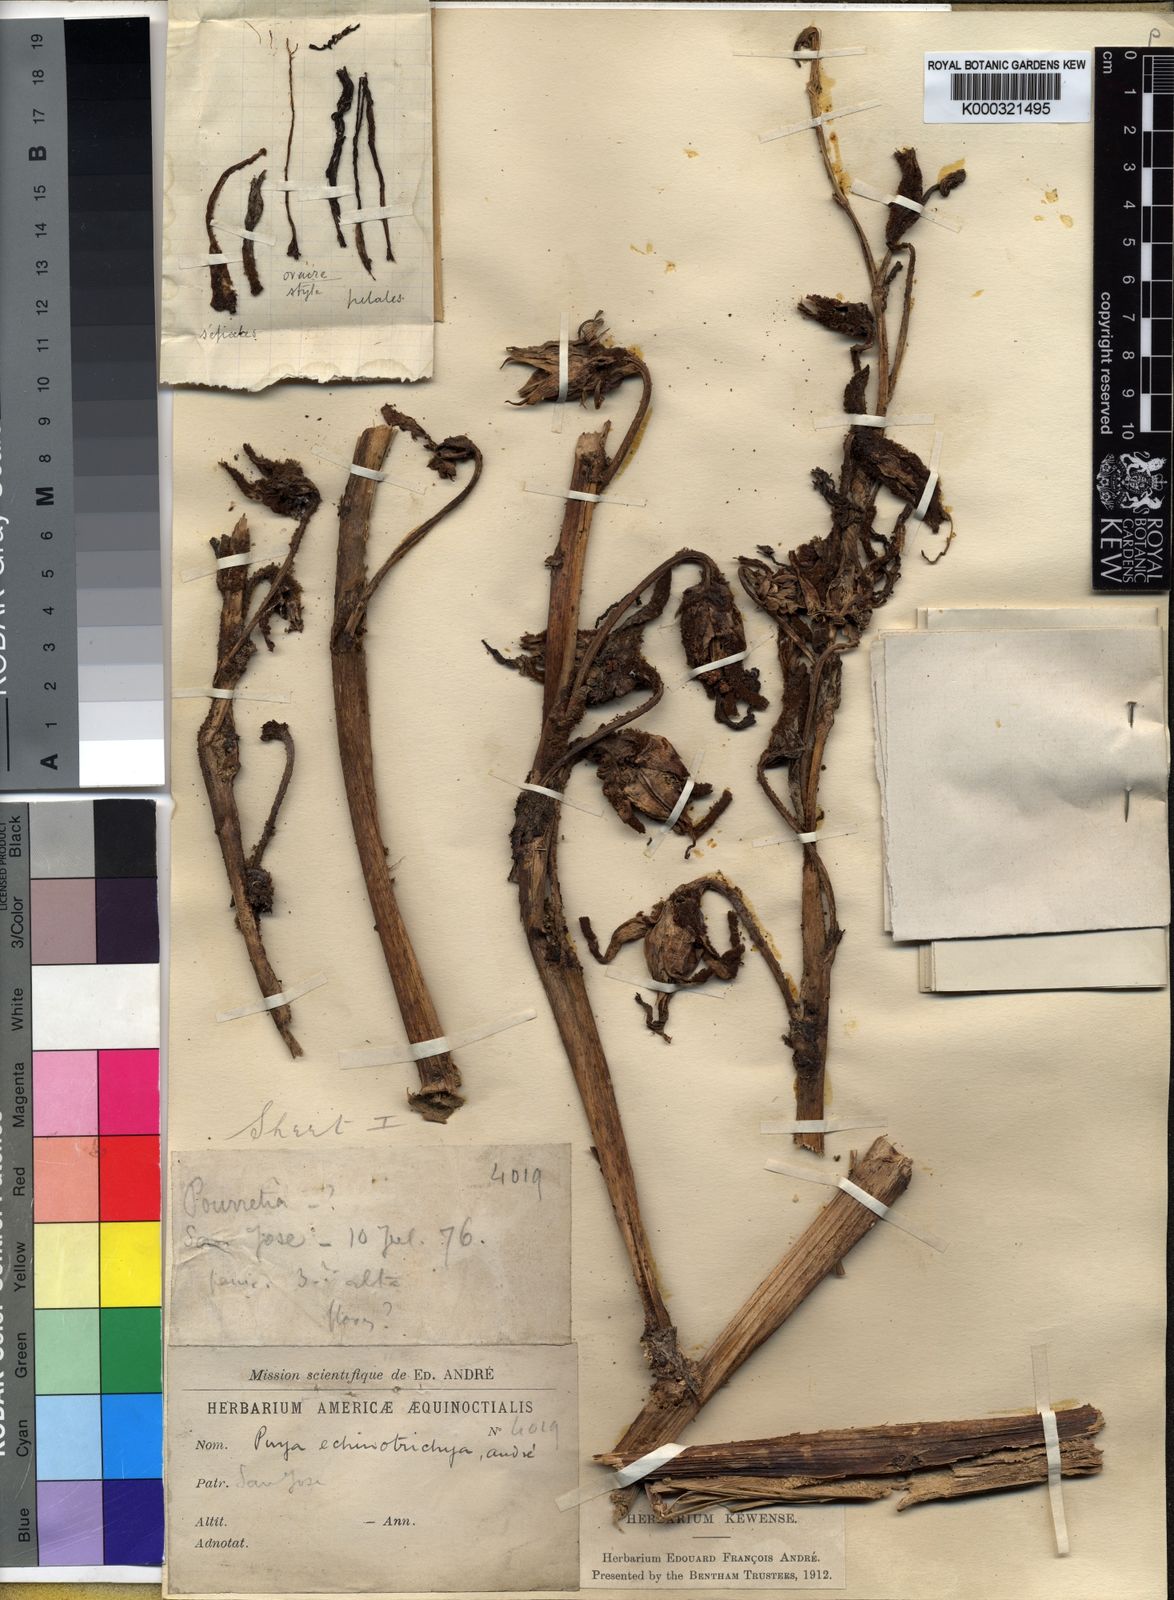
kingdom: Plantae
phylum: Tracheophyta
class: Liliopsida
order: Poales
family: Bromeliaceae
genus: Puya
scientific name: Puya ferruginea
